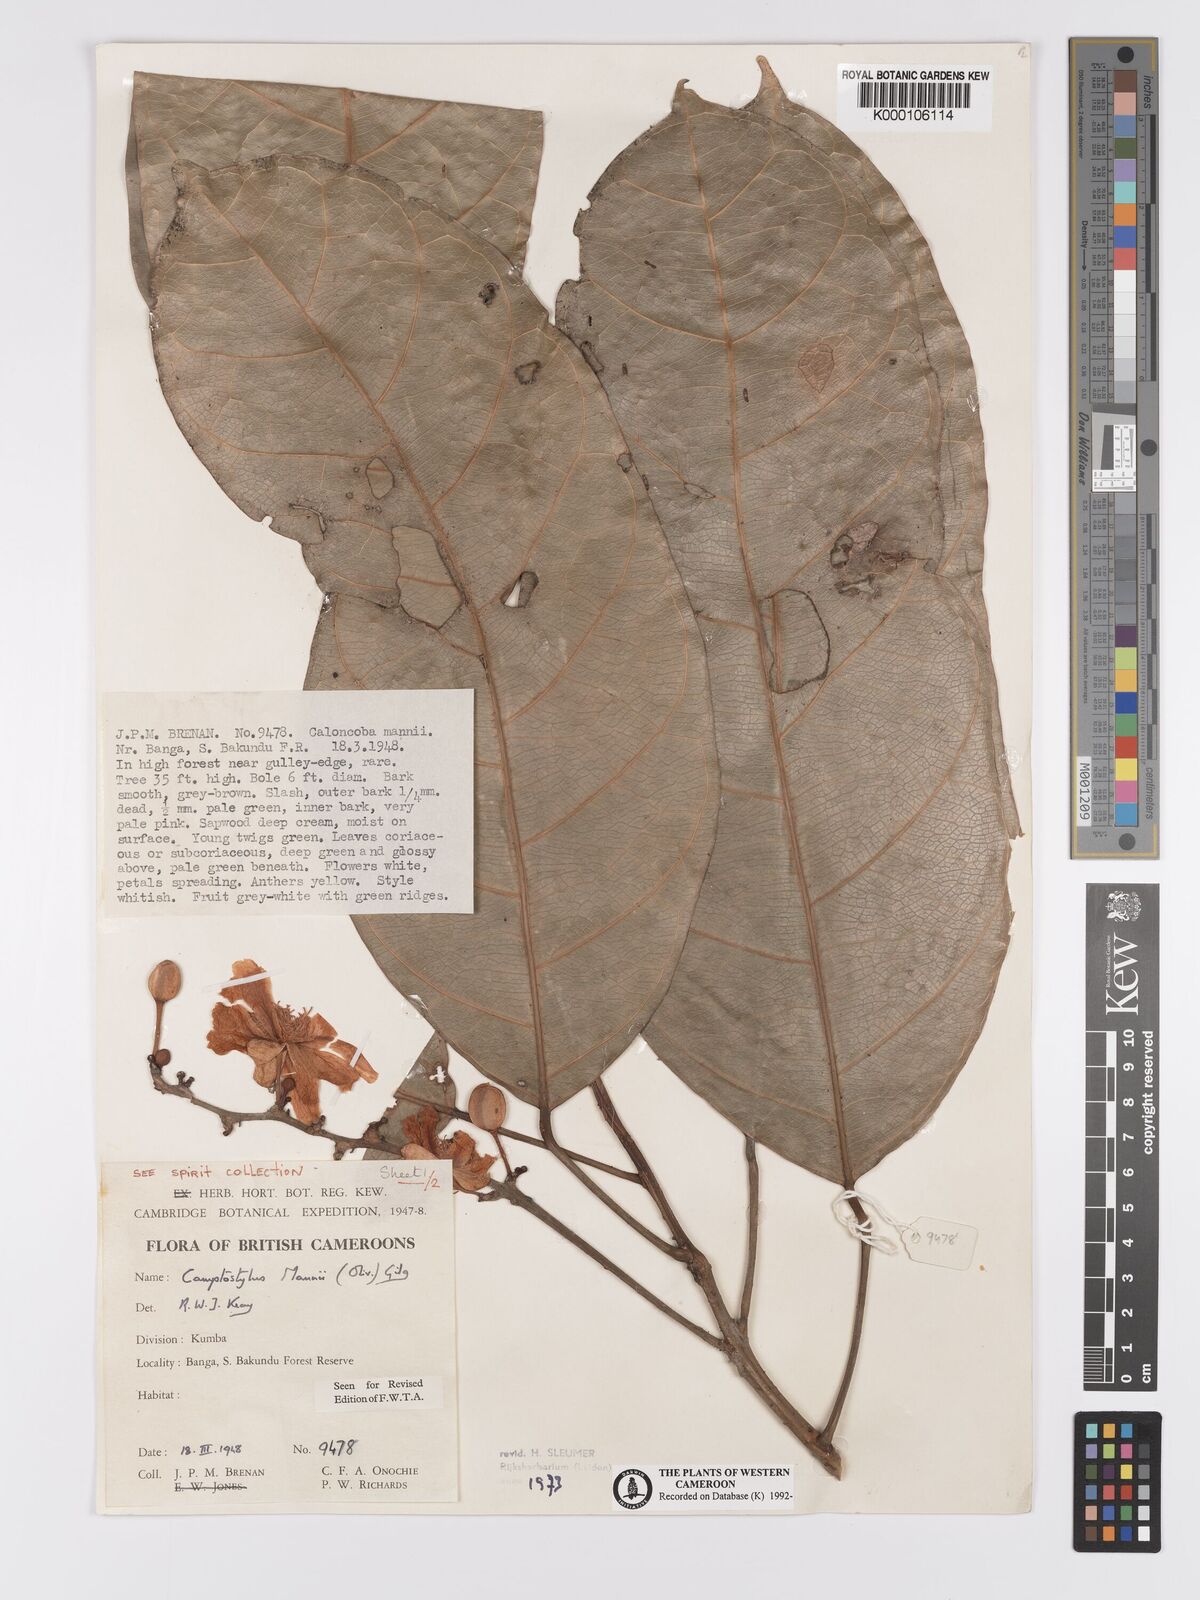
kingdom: Plantae
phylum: Tracheophyta
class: Magnoliopsida
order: Malpighiales
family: Achariaceae
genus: Camptostylus
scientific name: Camptostylus mannii
